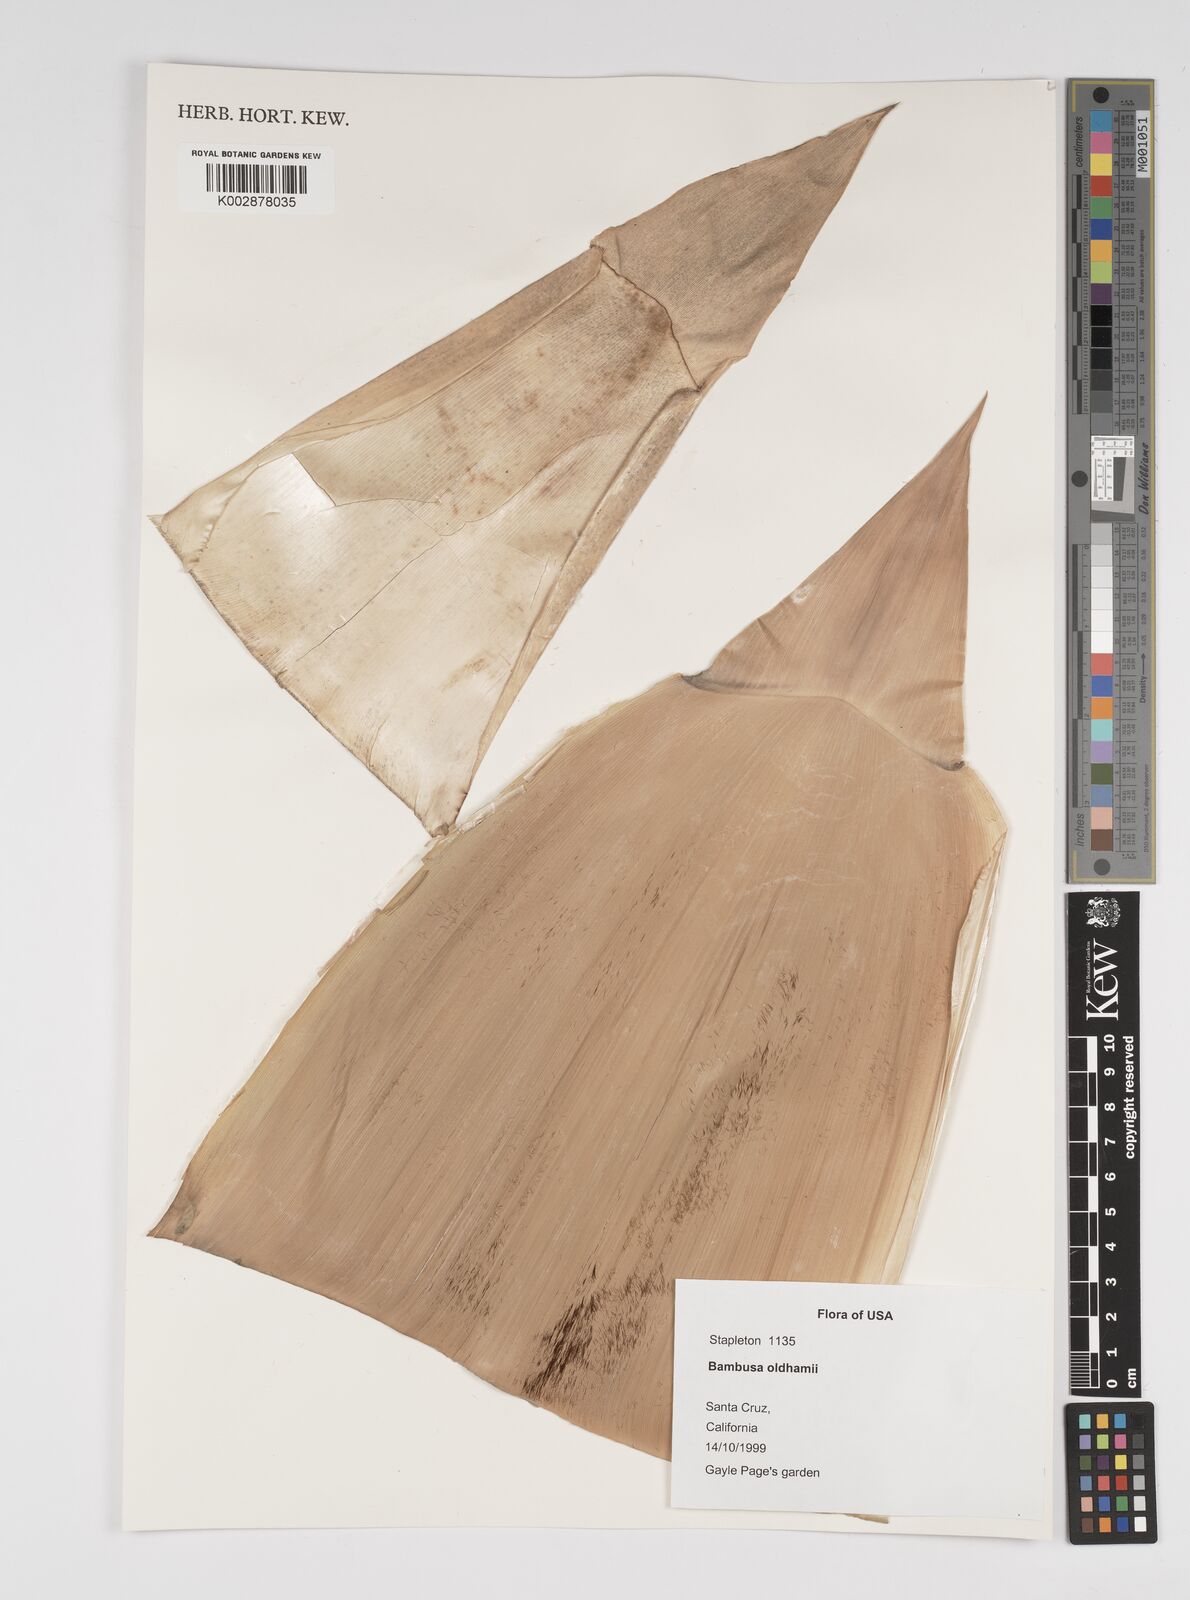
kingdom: Plantae
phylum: Tracheophyta
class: Liliopsida
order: Poales
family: Poaceae
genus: Bambusa
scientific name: Bambusa oldhamii
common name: Giant timber bamboo
